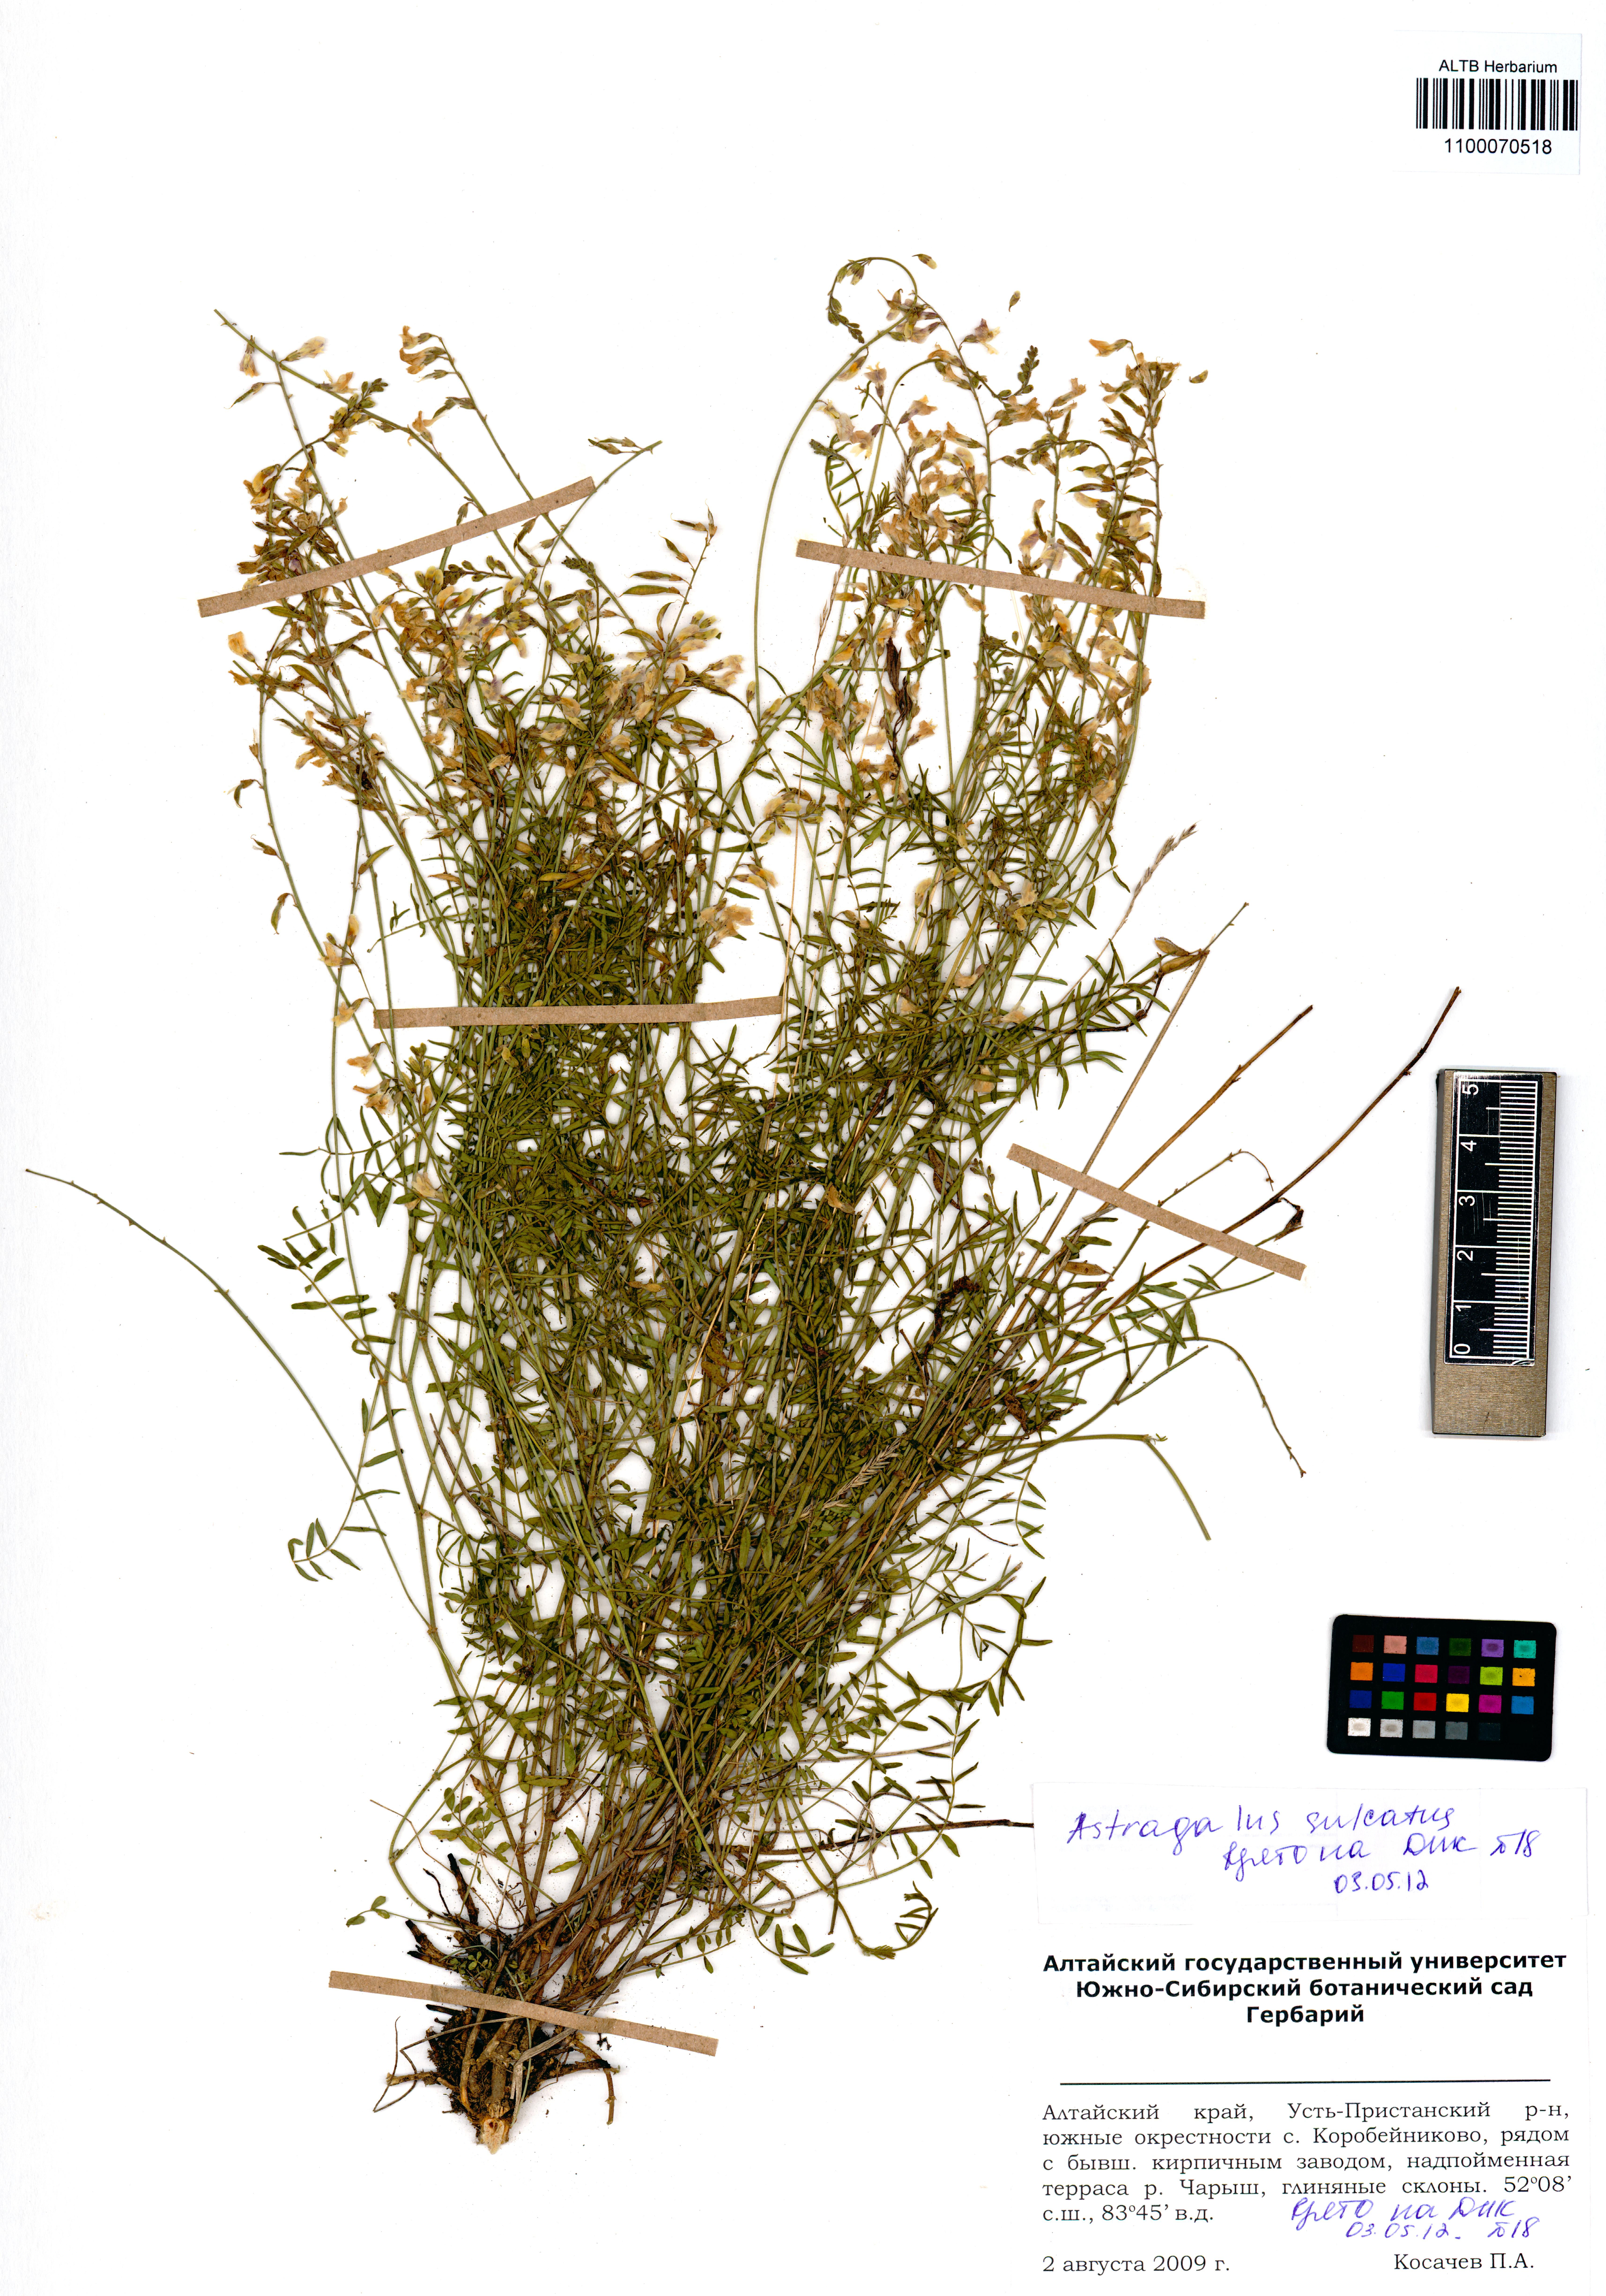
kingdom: Plantae
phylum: Tracheophyta
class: Magnoliopsida
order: Fabales
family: Fabaceae
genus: Astragalus
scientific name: Astragalus sulcatus
